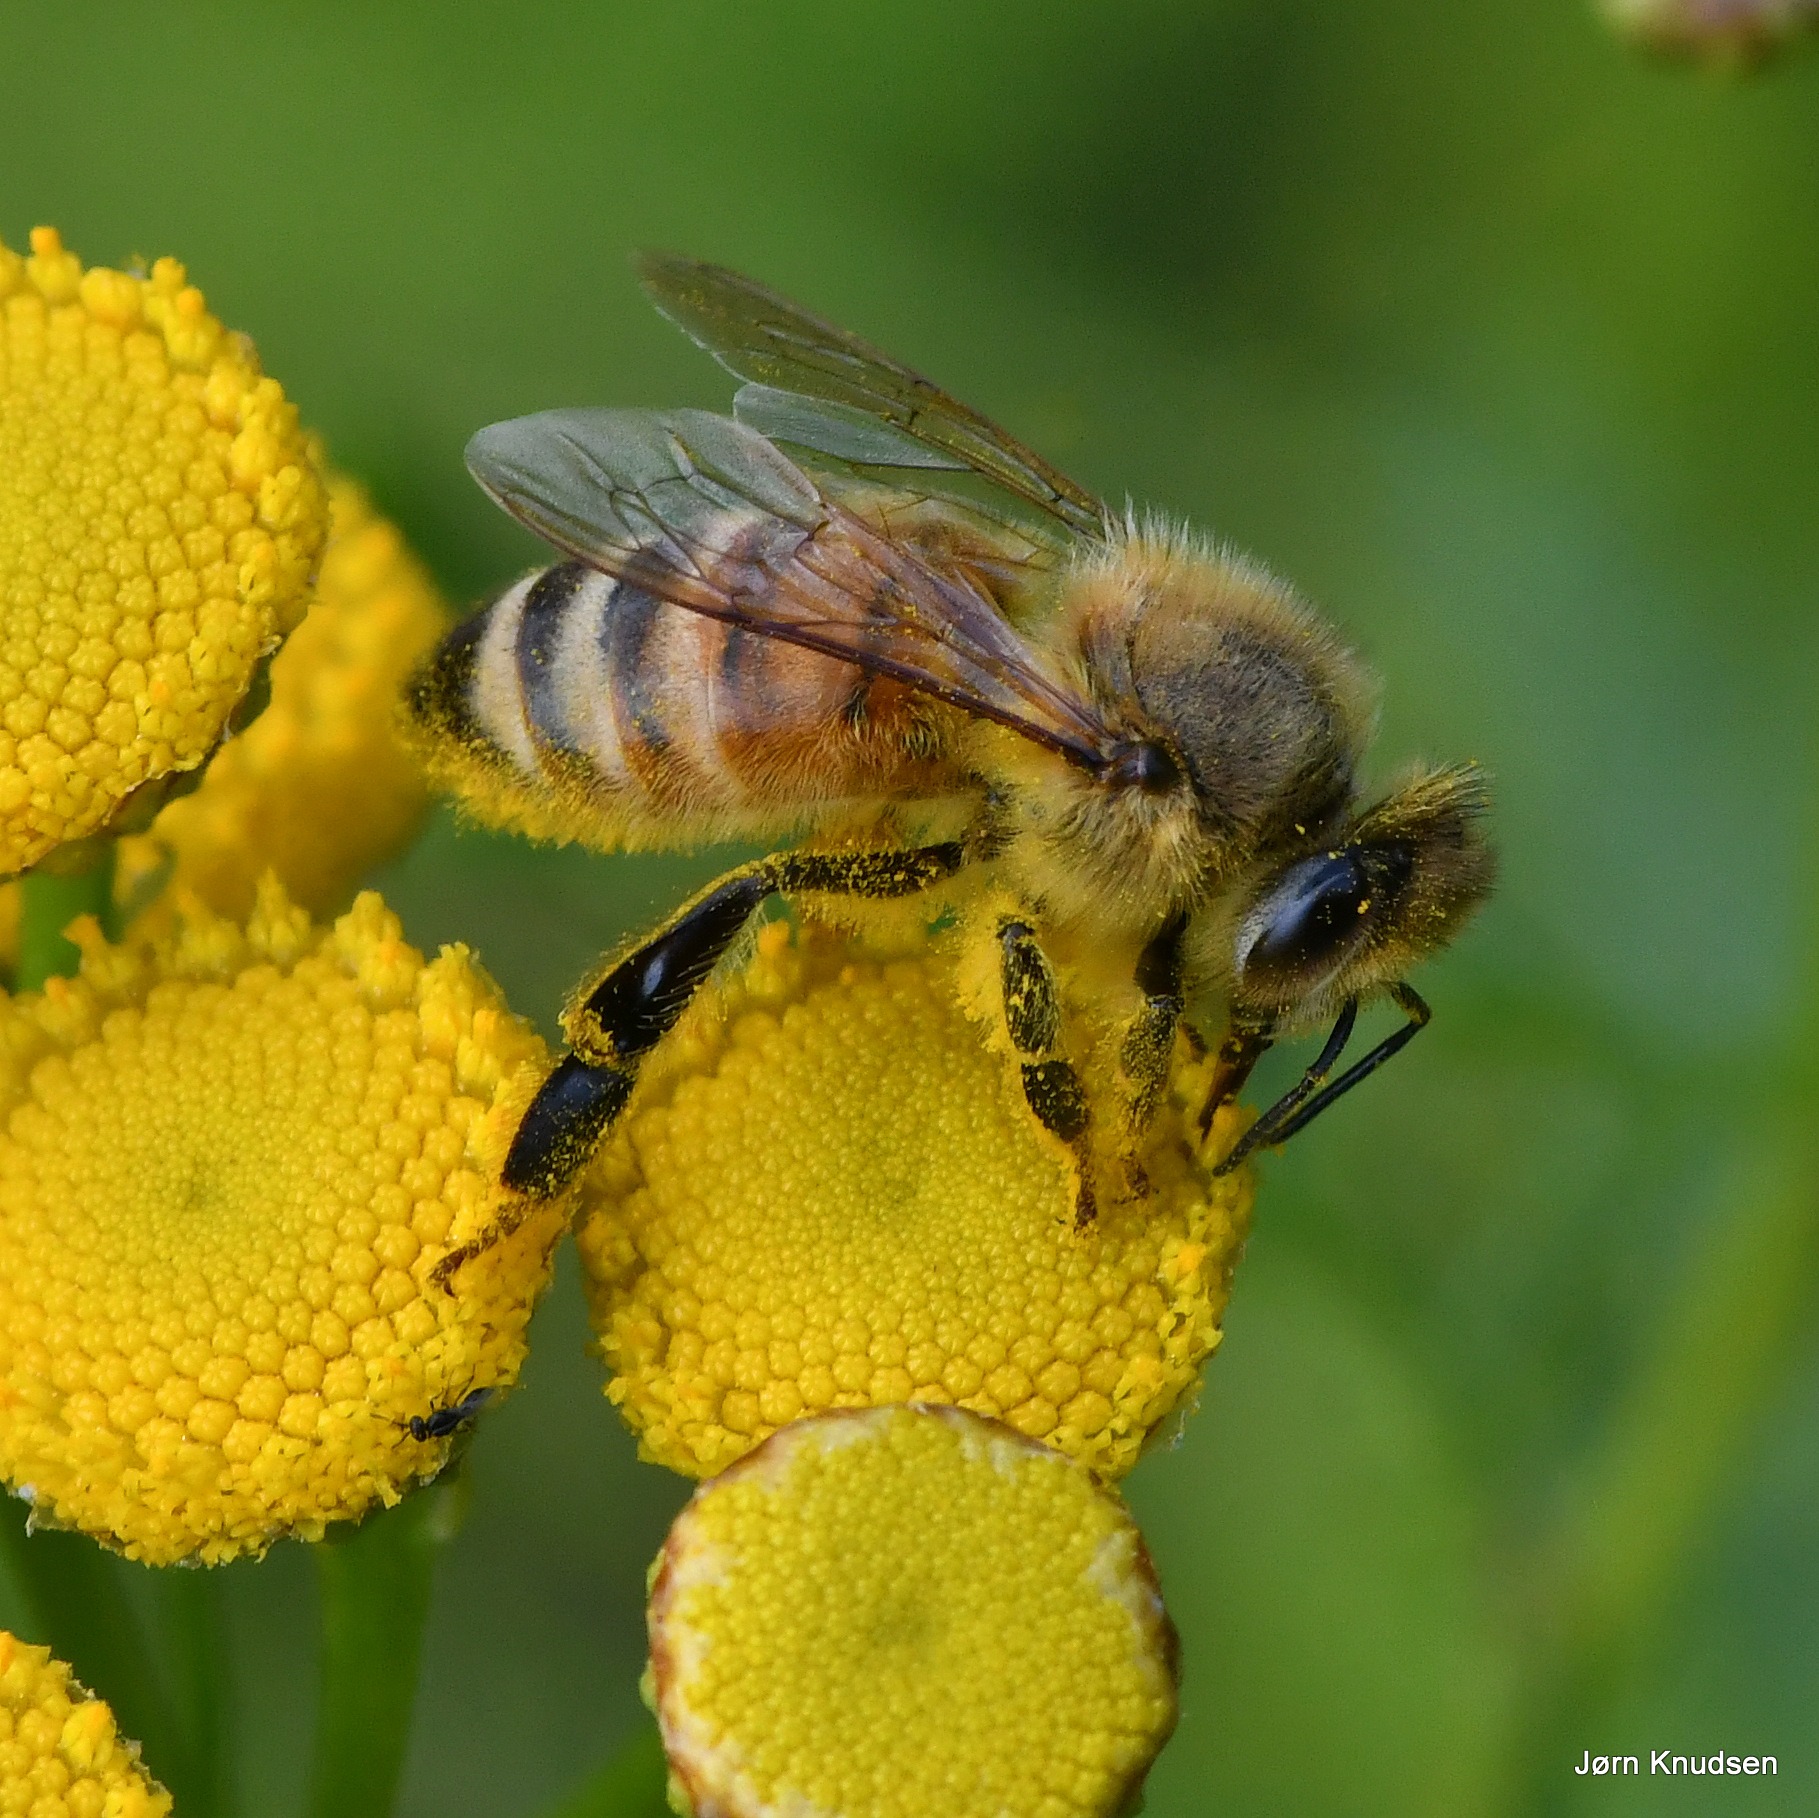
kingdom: Animalia
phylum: Arthropoda
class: Insecta
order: Hymenoptera
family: Apidae
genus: Apis
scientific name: Apis mellifera
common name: Honningbi
